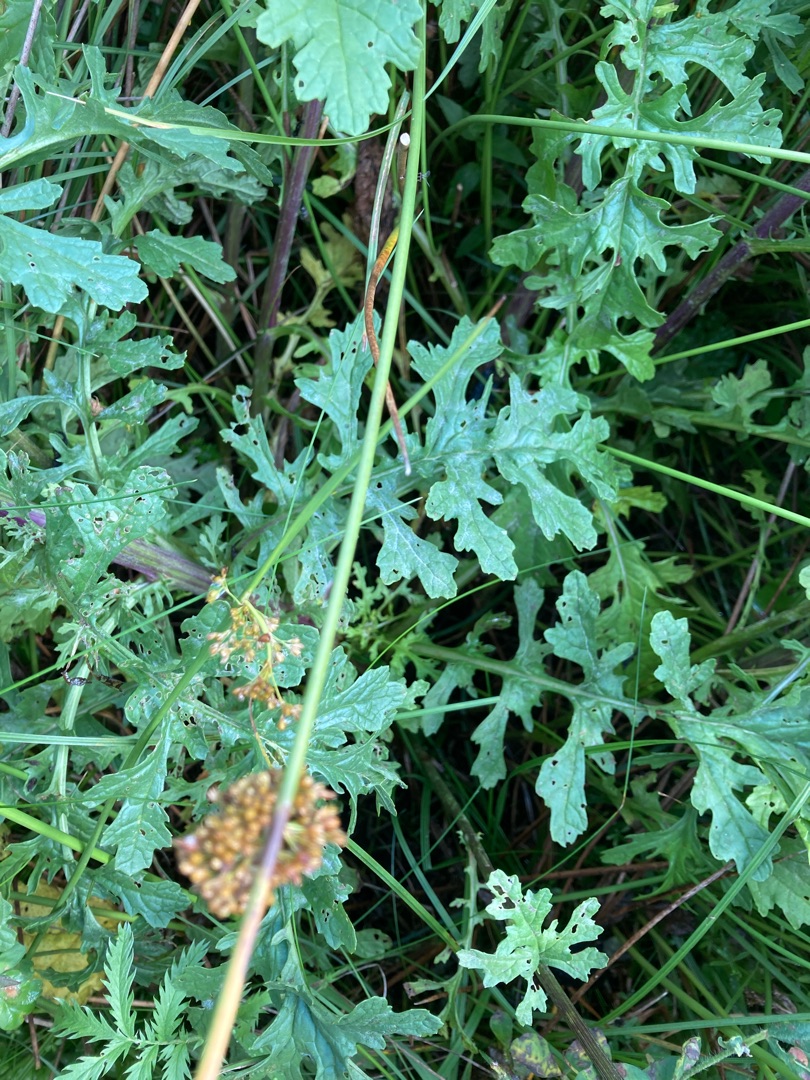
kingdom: Plantae
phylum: Tracheophyta
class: Magnoliopsida
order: Asterales
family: Asteraceae
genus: Jacobaea
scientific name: Jacobaea vulgaris
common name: Eng-brandbæger
